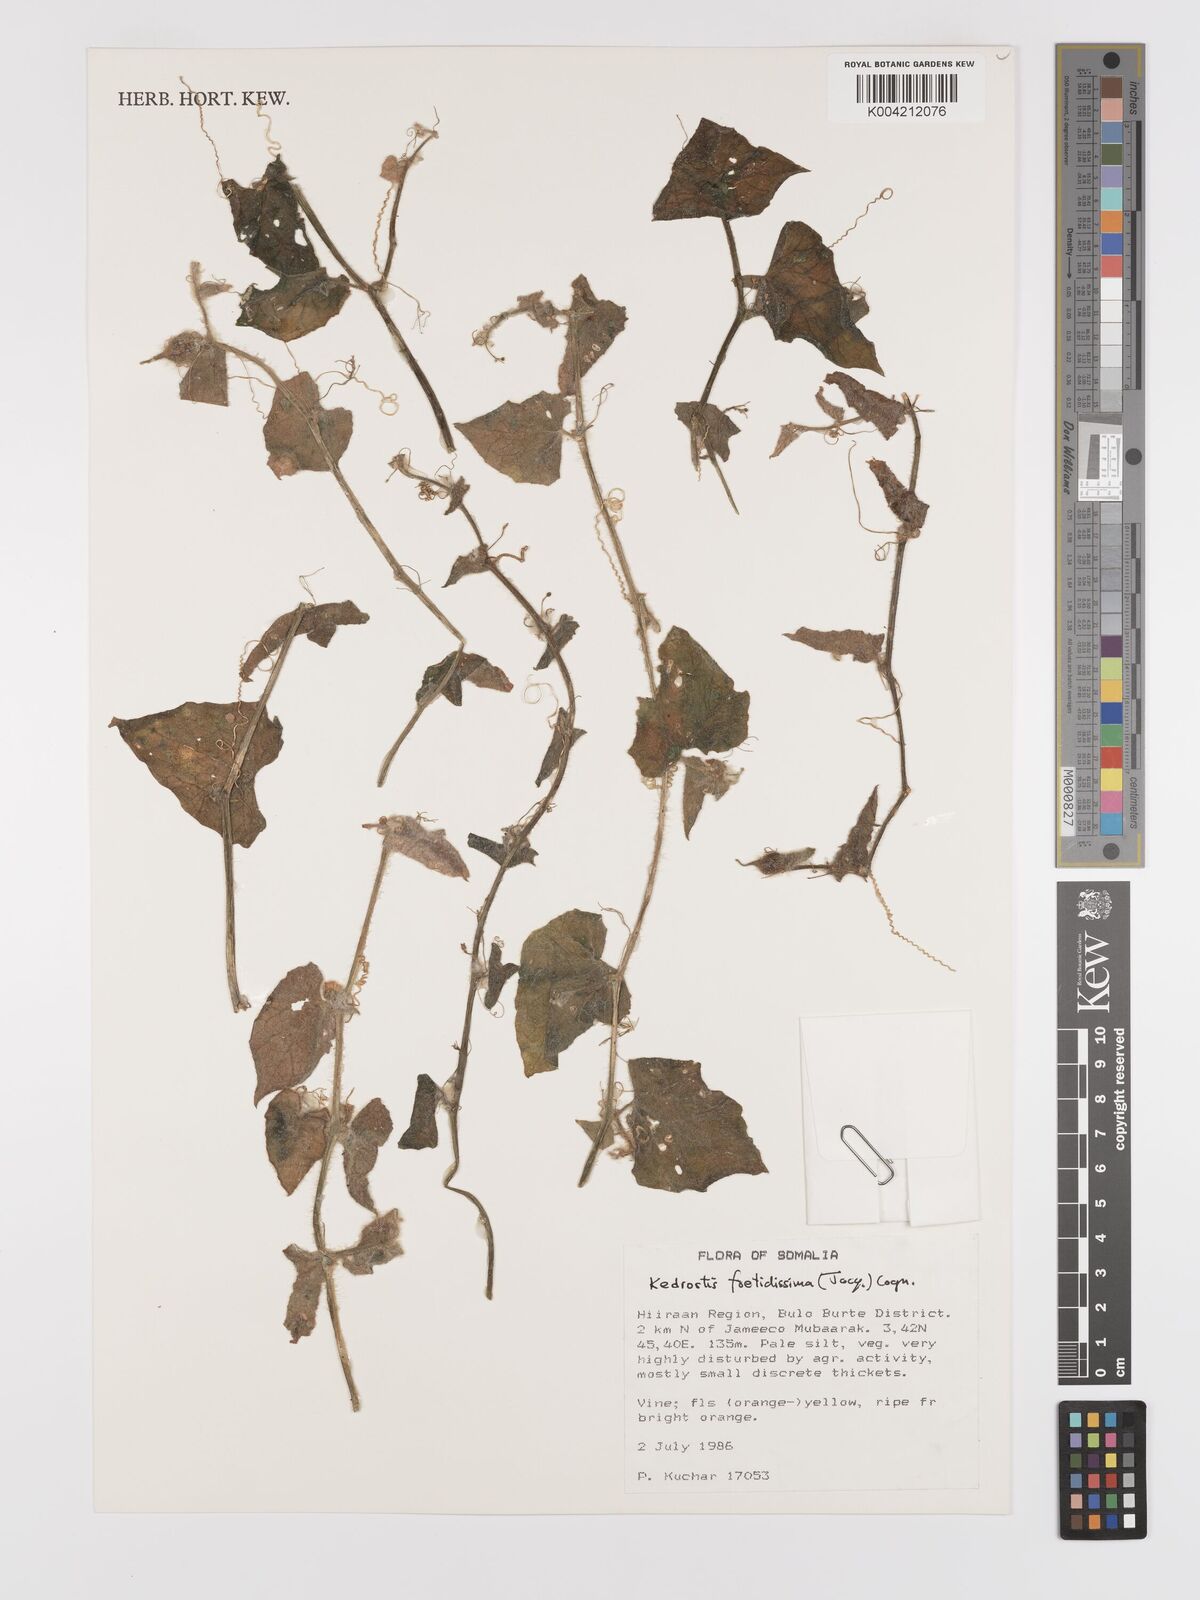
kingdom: Plantae
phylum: Tracheophyta
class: Magnoliopsida
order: Cucurbitales
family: Cucurbitaceae
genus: Kedrostis
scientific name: Kedrostis foetidissima
